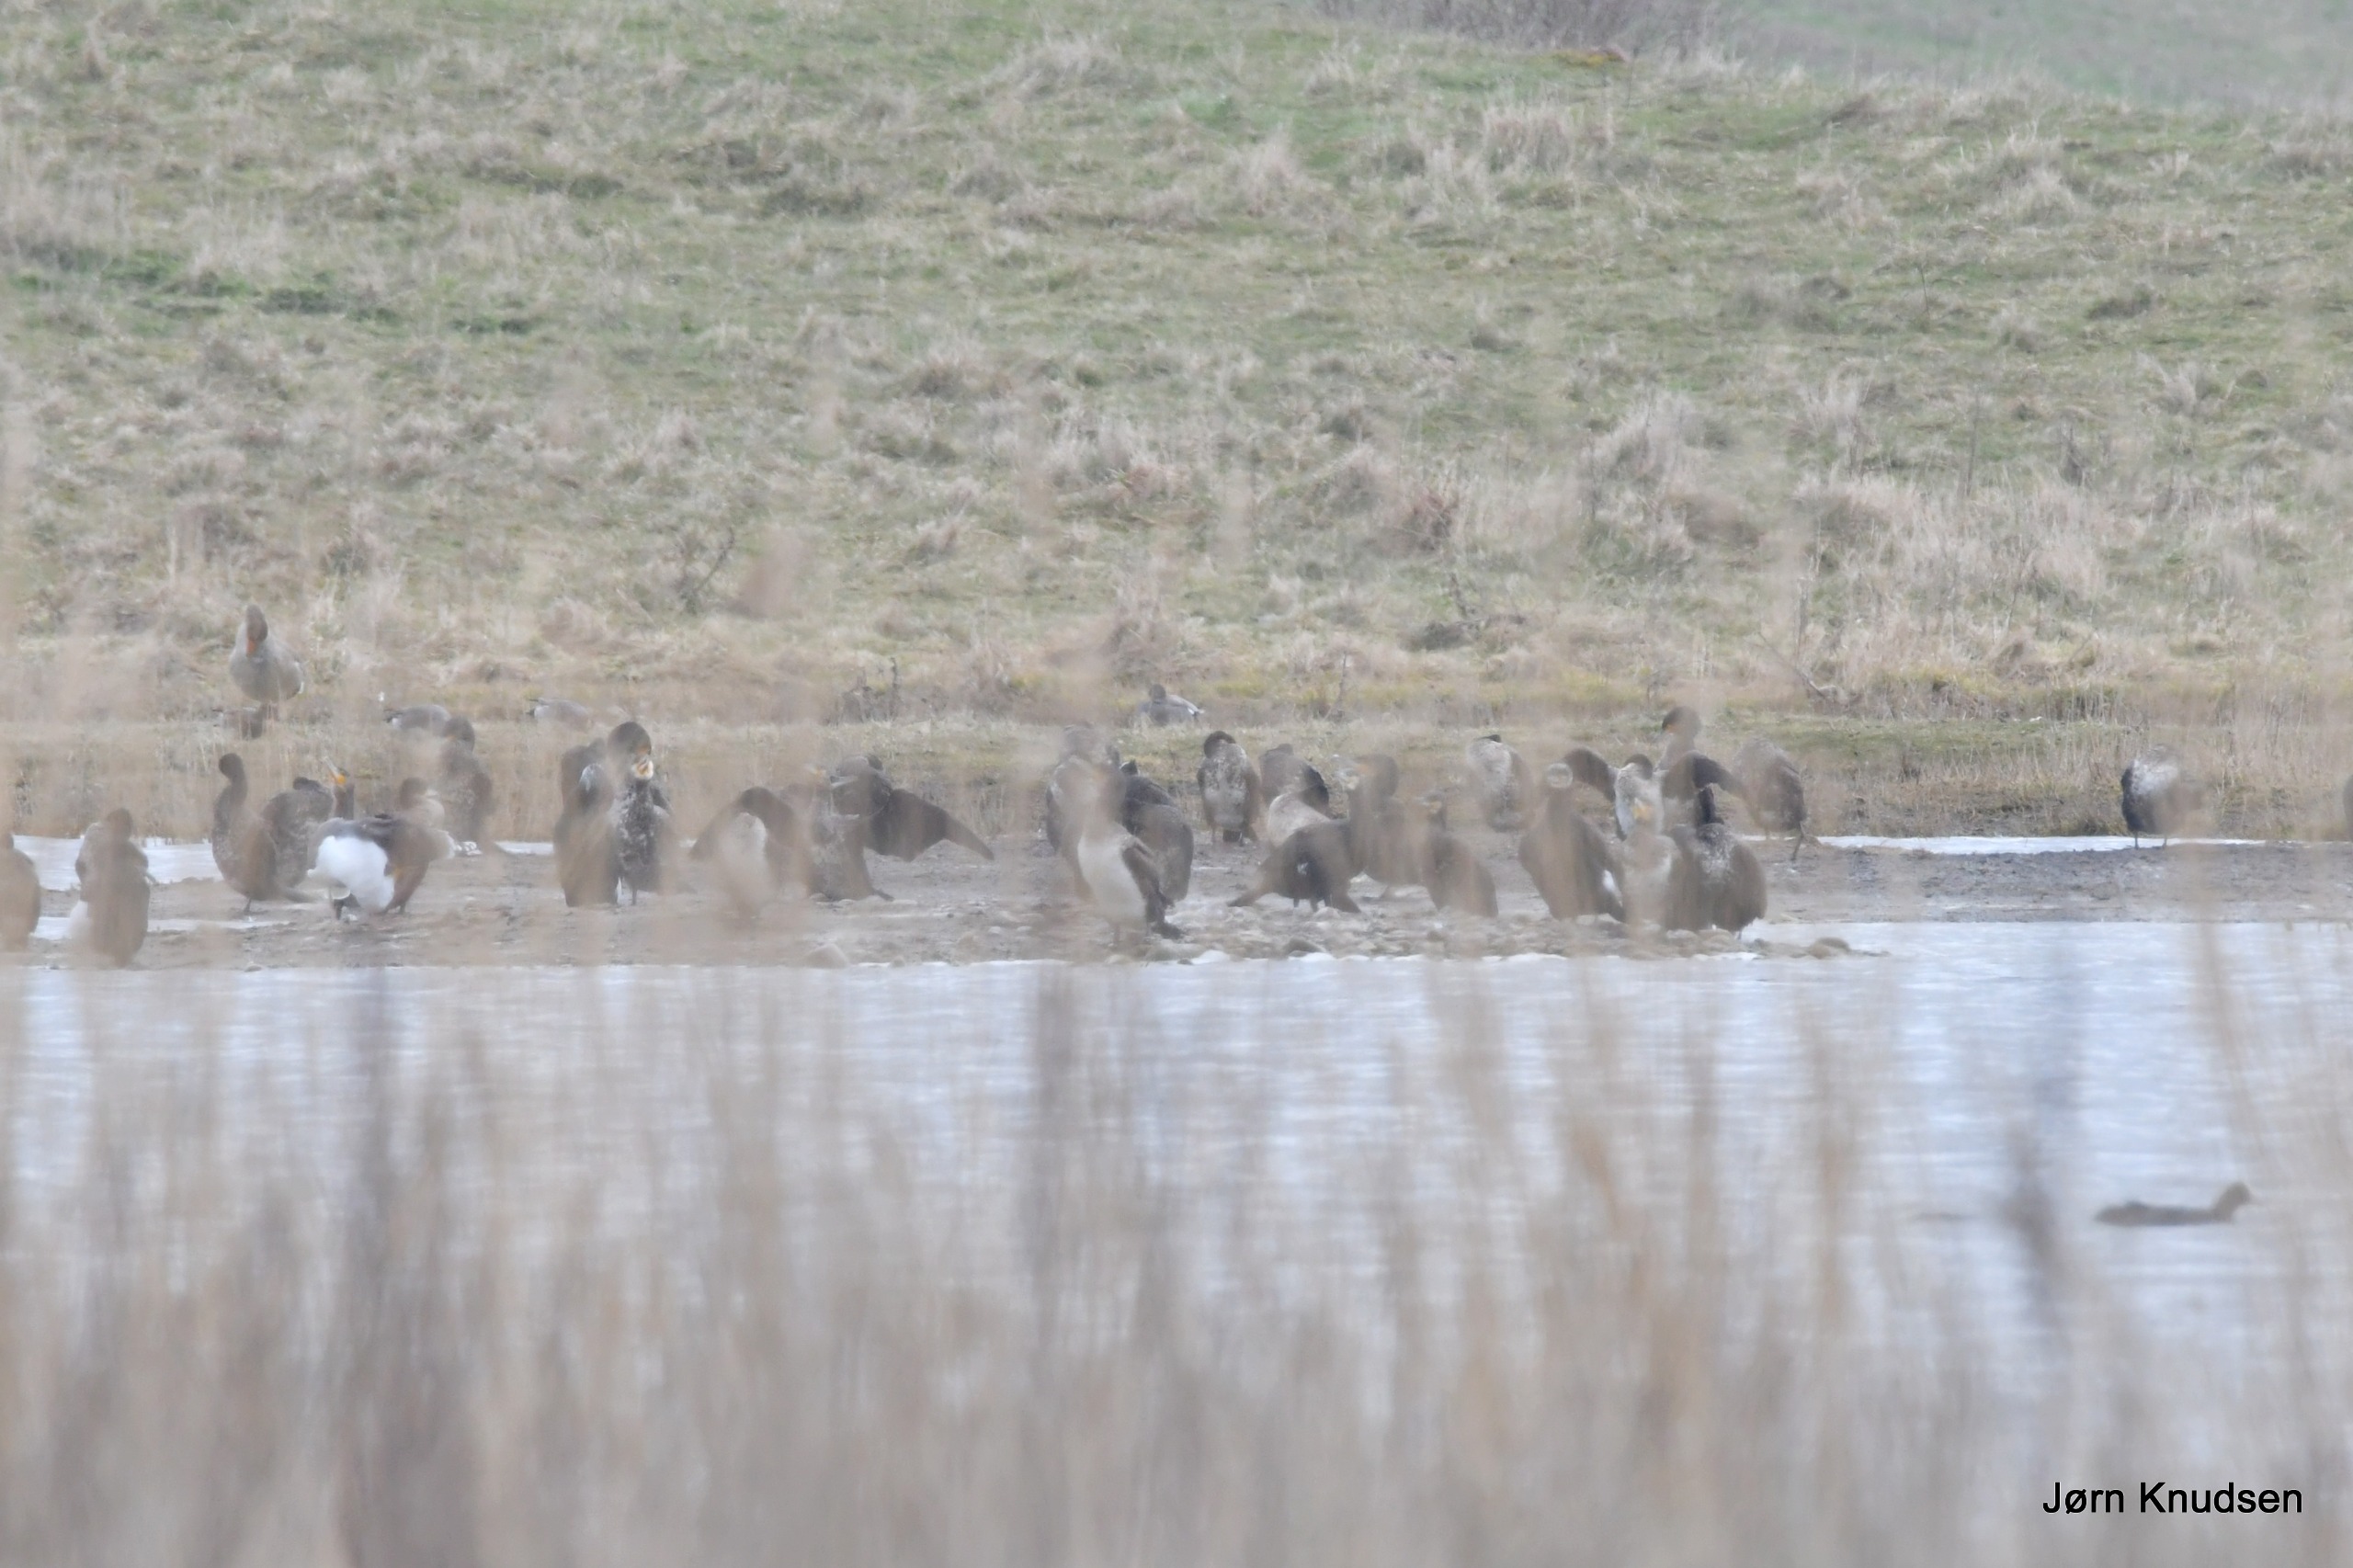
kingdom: Animalia
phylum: Chordata
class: Aves
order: Suliformes
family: Phalacrocoracidae
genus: Phalacrocorax
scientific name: Phalacrocorax carbo
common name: Skarv
